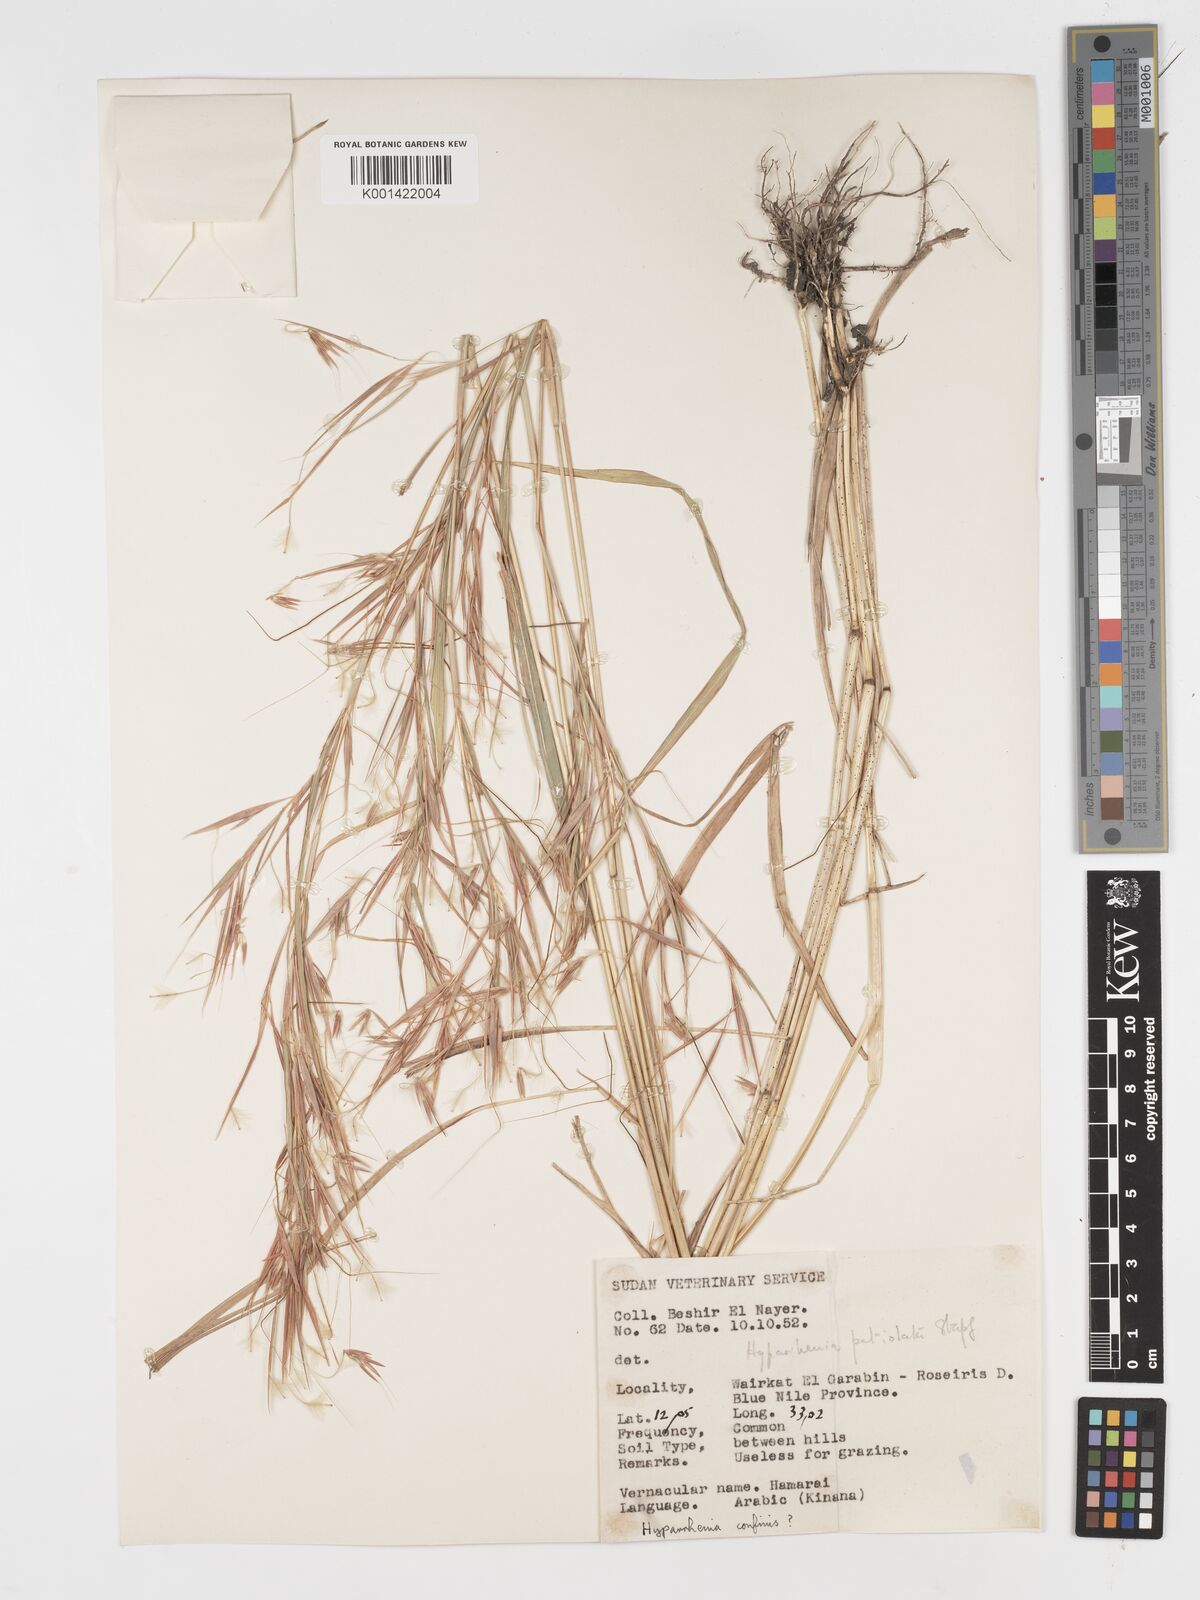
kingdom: Plantae
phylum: Tracheophyta
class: Liliopsida
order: Poales
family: Poaceae
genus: Hyparrhenia
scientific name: Hyparrhenia confinis
